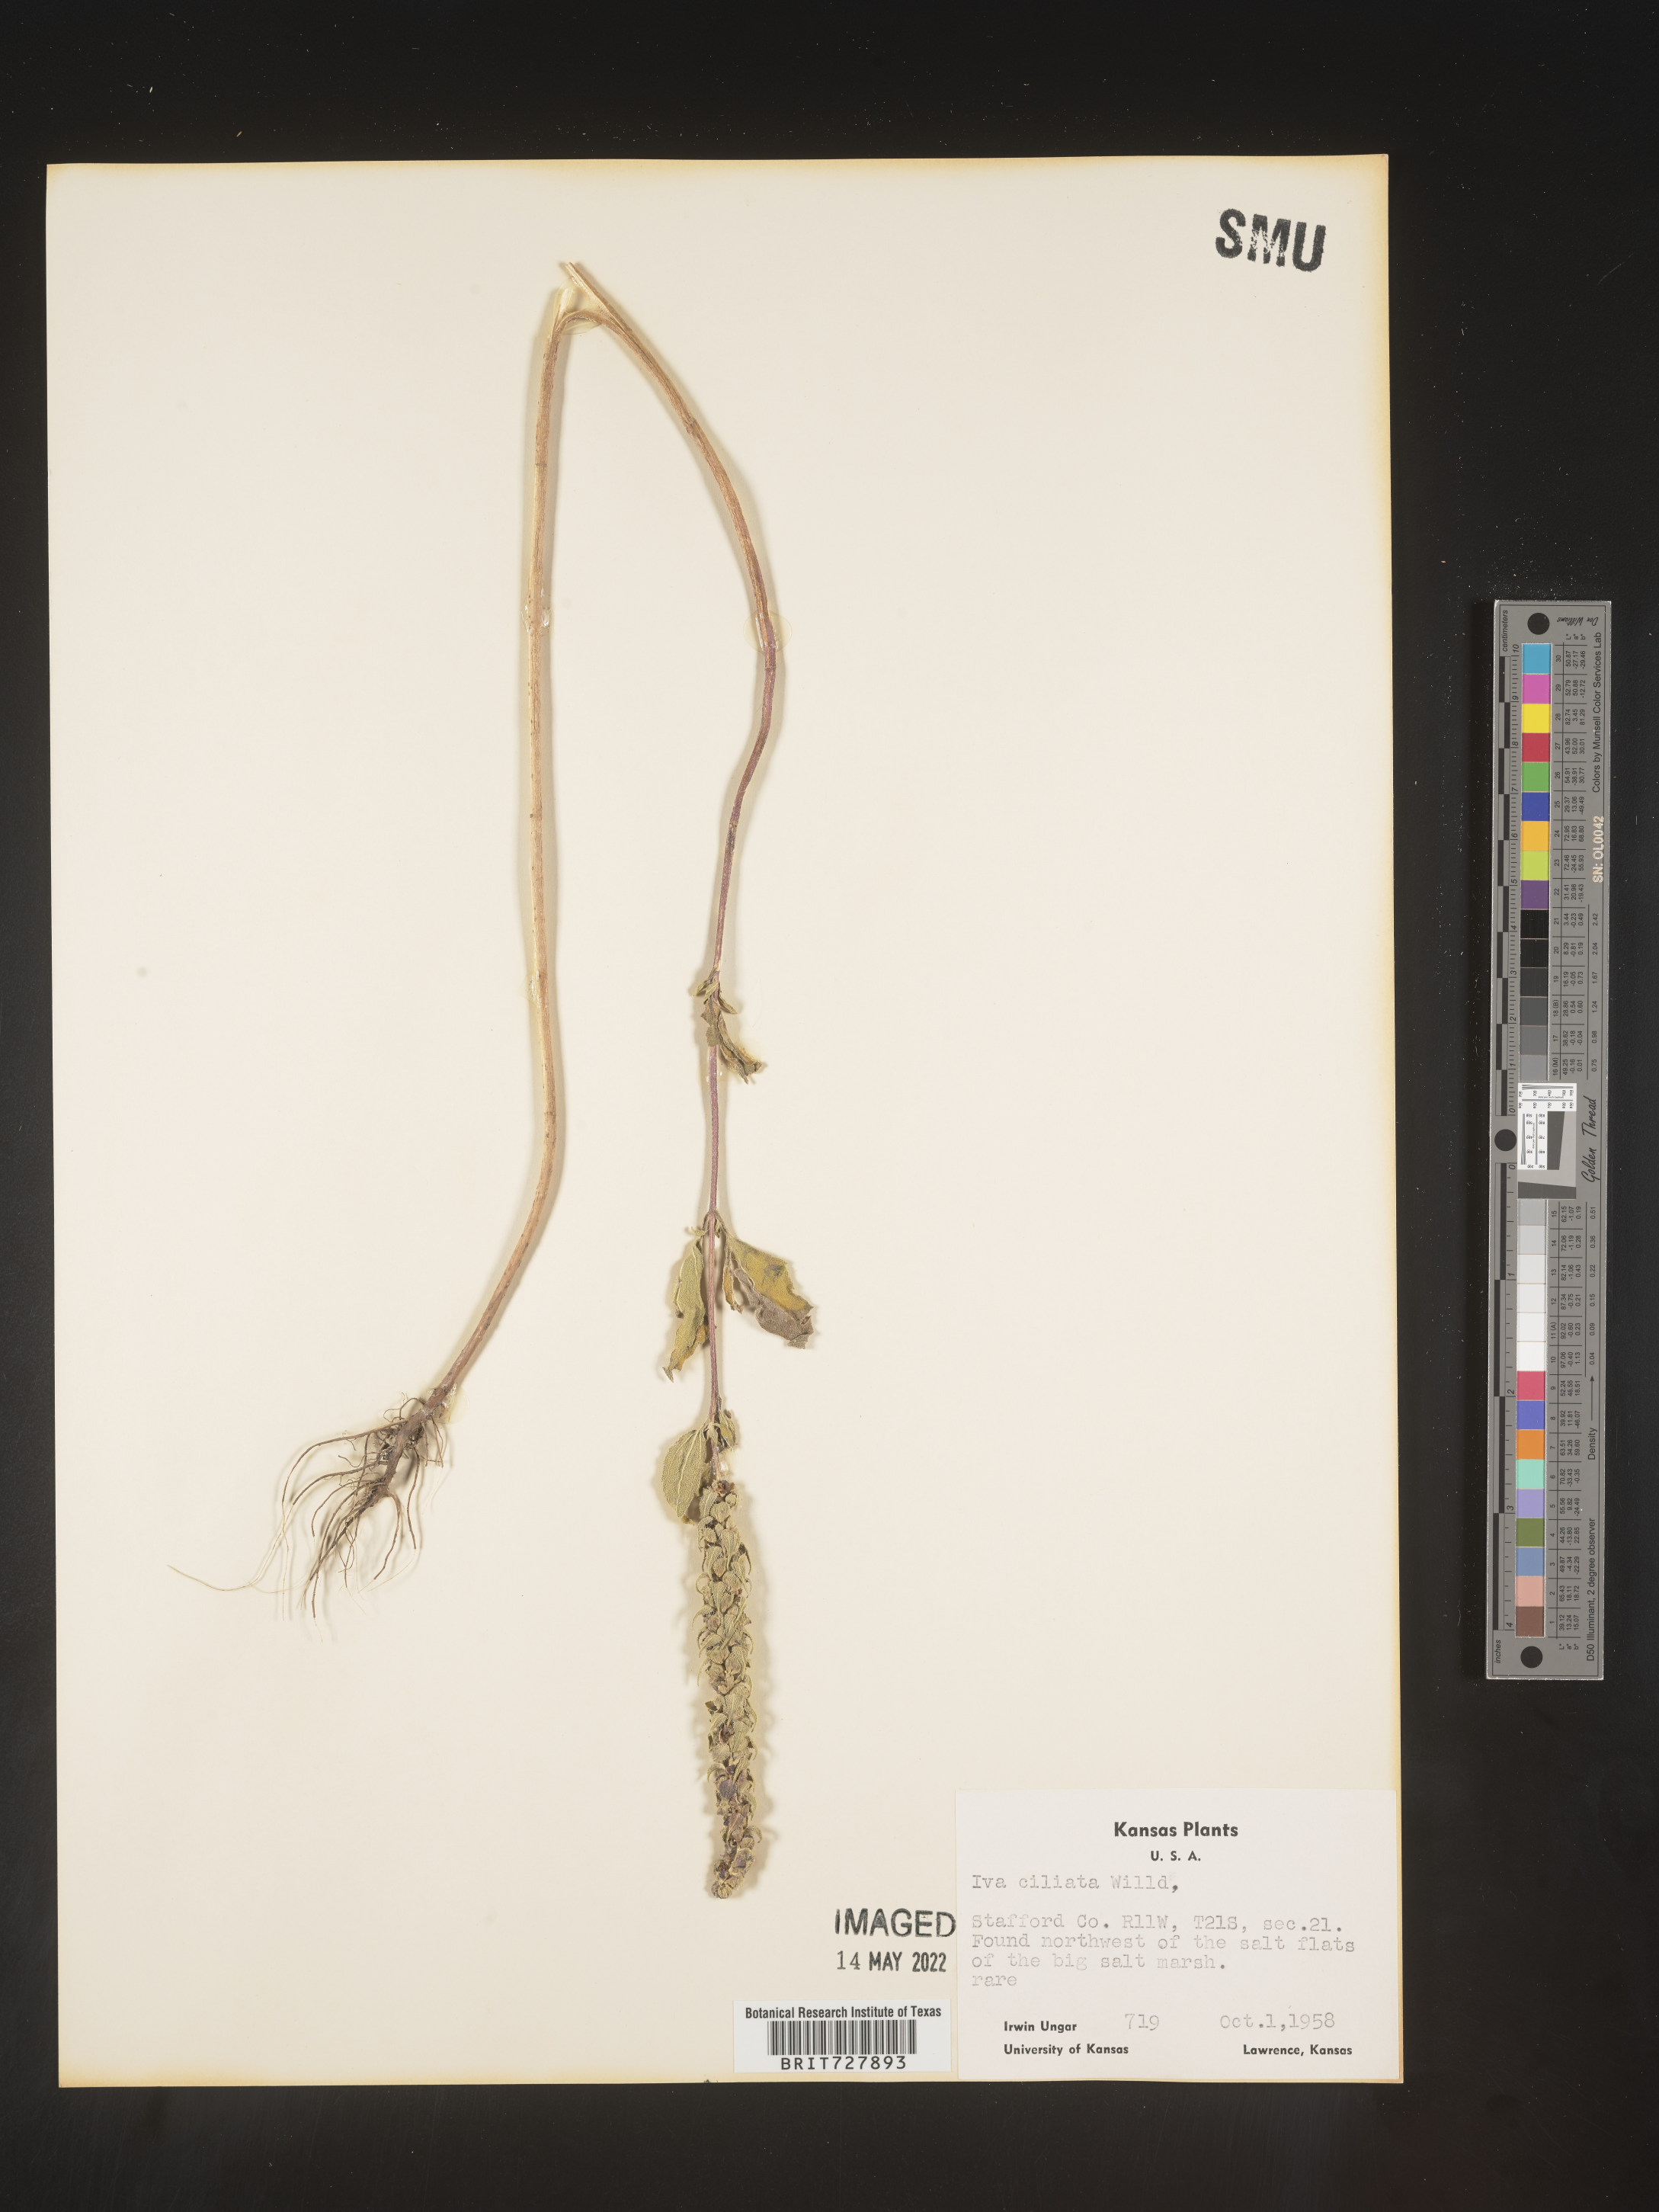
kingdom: Plantae
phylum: Tracheophyta
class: Magnoliopsida
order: Asterales
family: Asteraceae
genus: Iva
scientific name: Iva annua
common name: Marsh-elder
